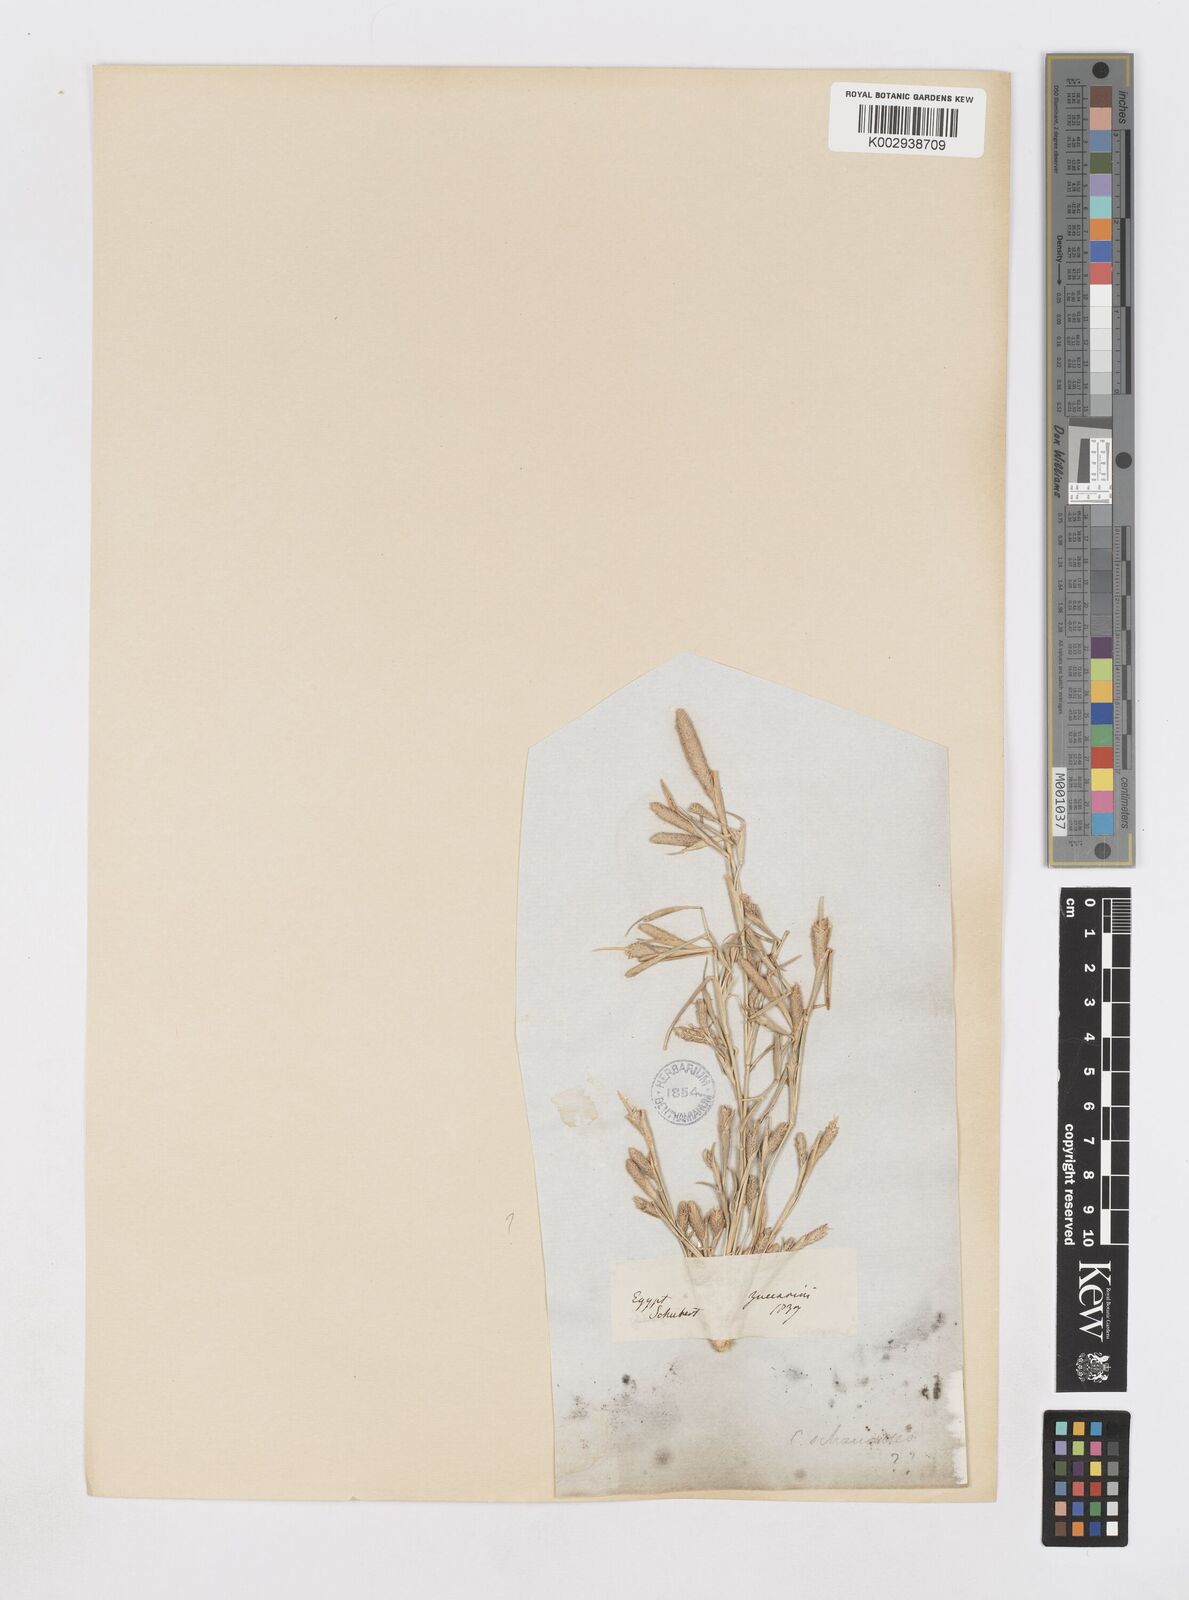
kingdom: Plantae
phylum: Tracheophyta
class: Liliopsida
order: Poales
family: Poaceae
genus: Sporobolus
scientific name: Sporobolus alopecuroides
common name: Foxtail pricklegrass
